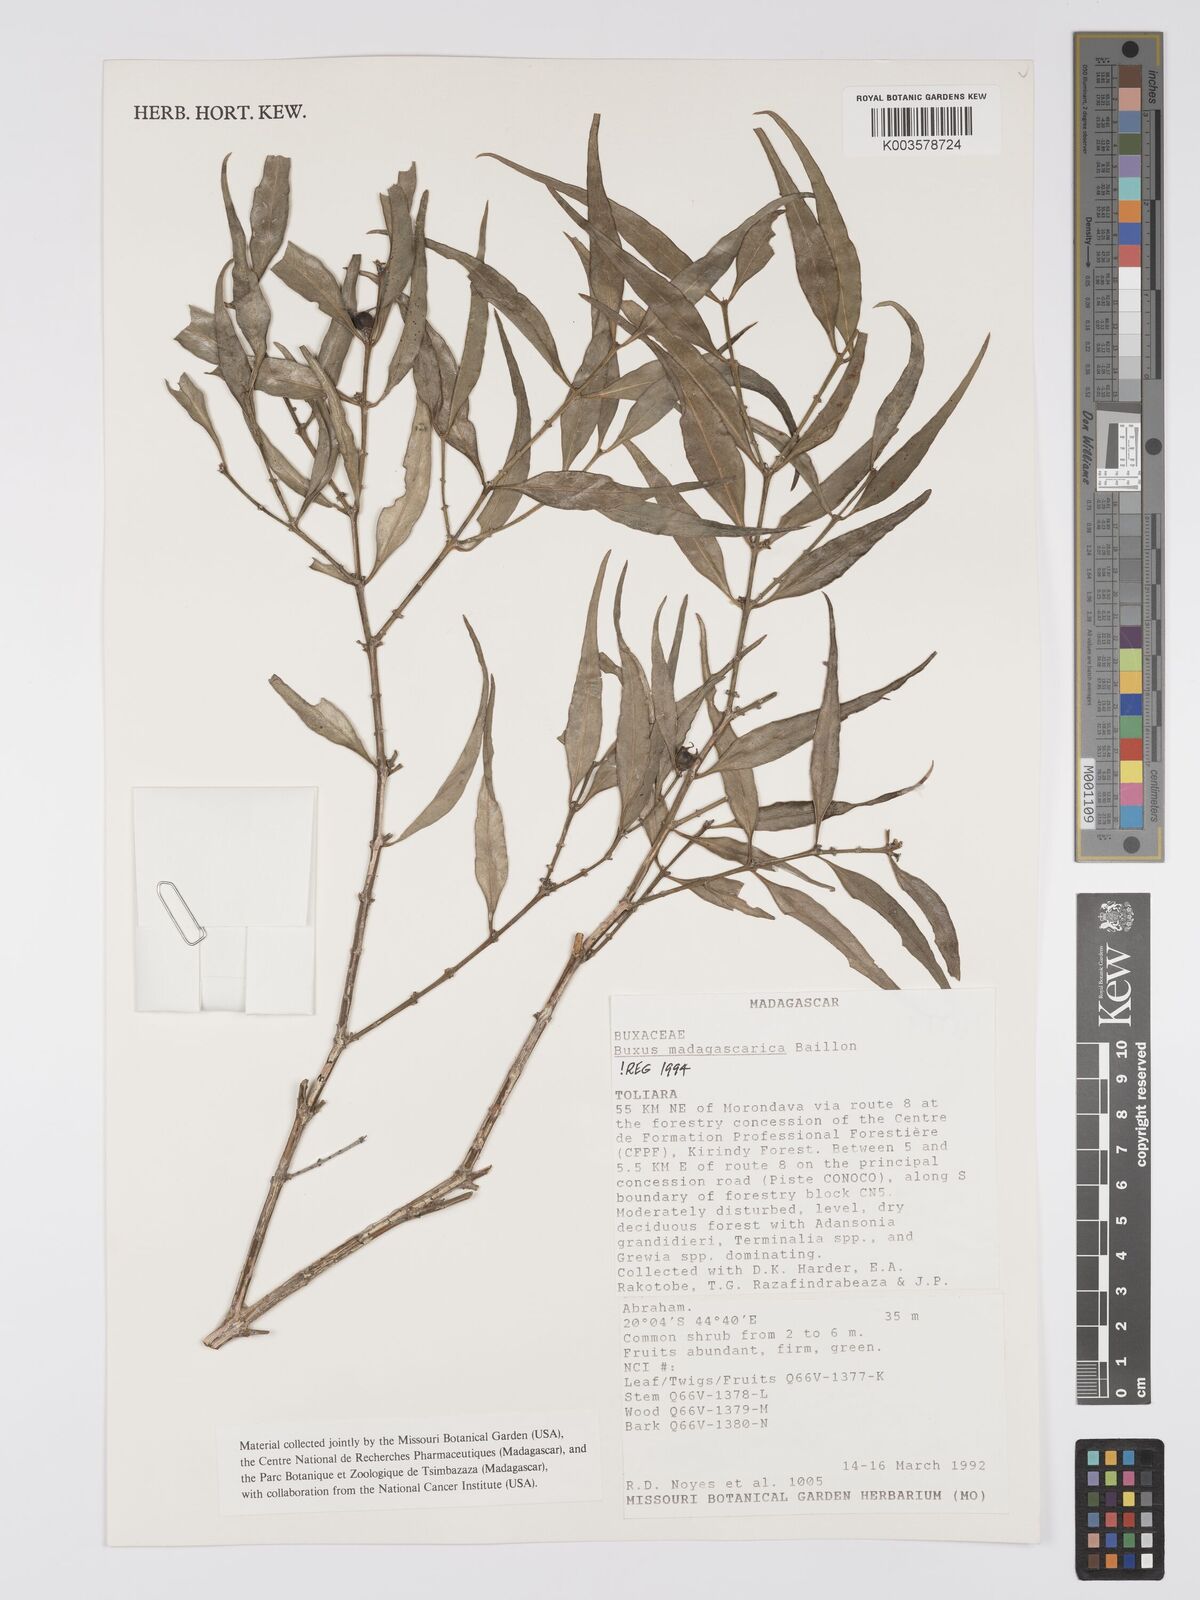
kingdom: Plantae
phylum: Tracheophyta
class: Magnoliopsida
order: Buxales
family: Buxaceae
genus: Buxus
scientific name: Buxus madagascarica
